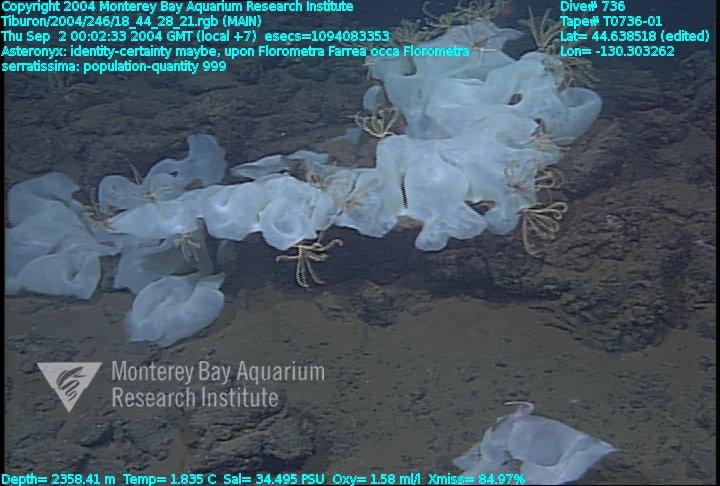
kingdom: Animalia
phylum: Porifera
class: Hexactinellida
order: Sceptrulophora
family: Farreidae
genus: Farrea
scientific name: Farrea occa
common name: Reversed glass sponge
